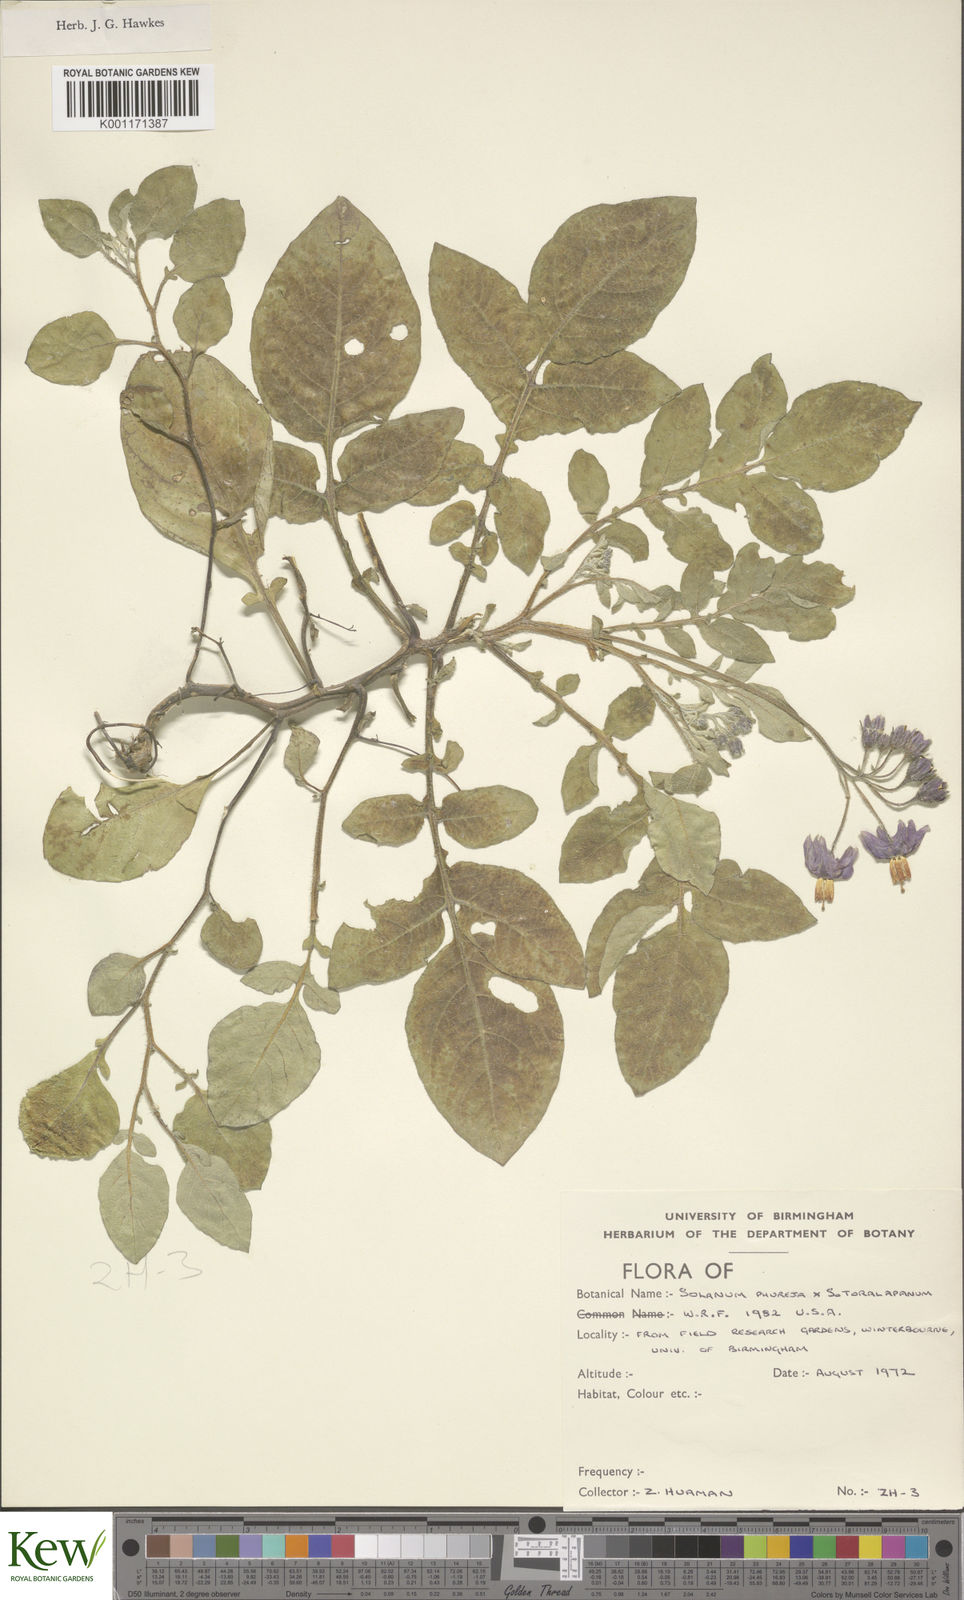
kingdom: Plantae
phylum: Tracheophyta
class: Magnoliopsida
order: Solanales
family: Solanaceae
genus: Solanum
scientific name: Solanum tuberosum
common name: Potato
